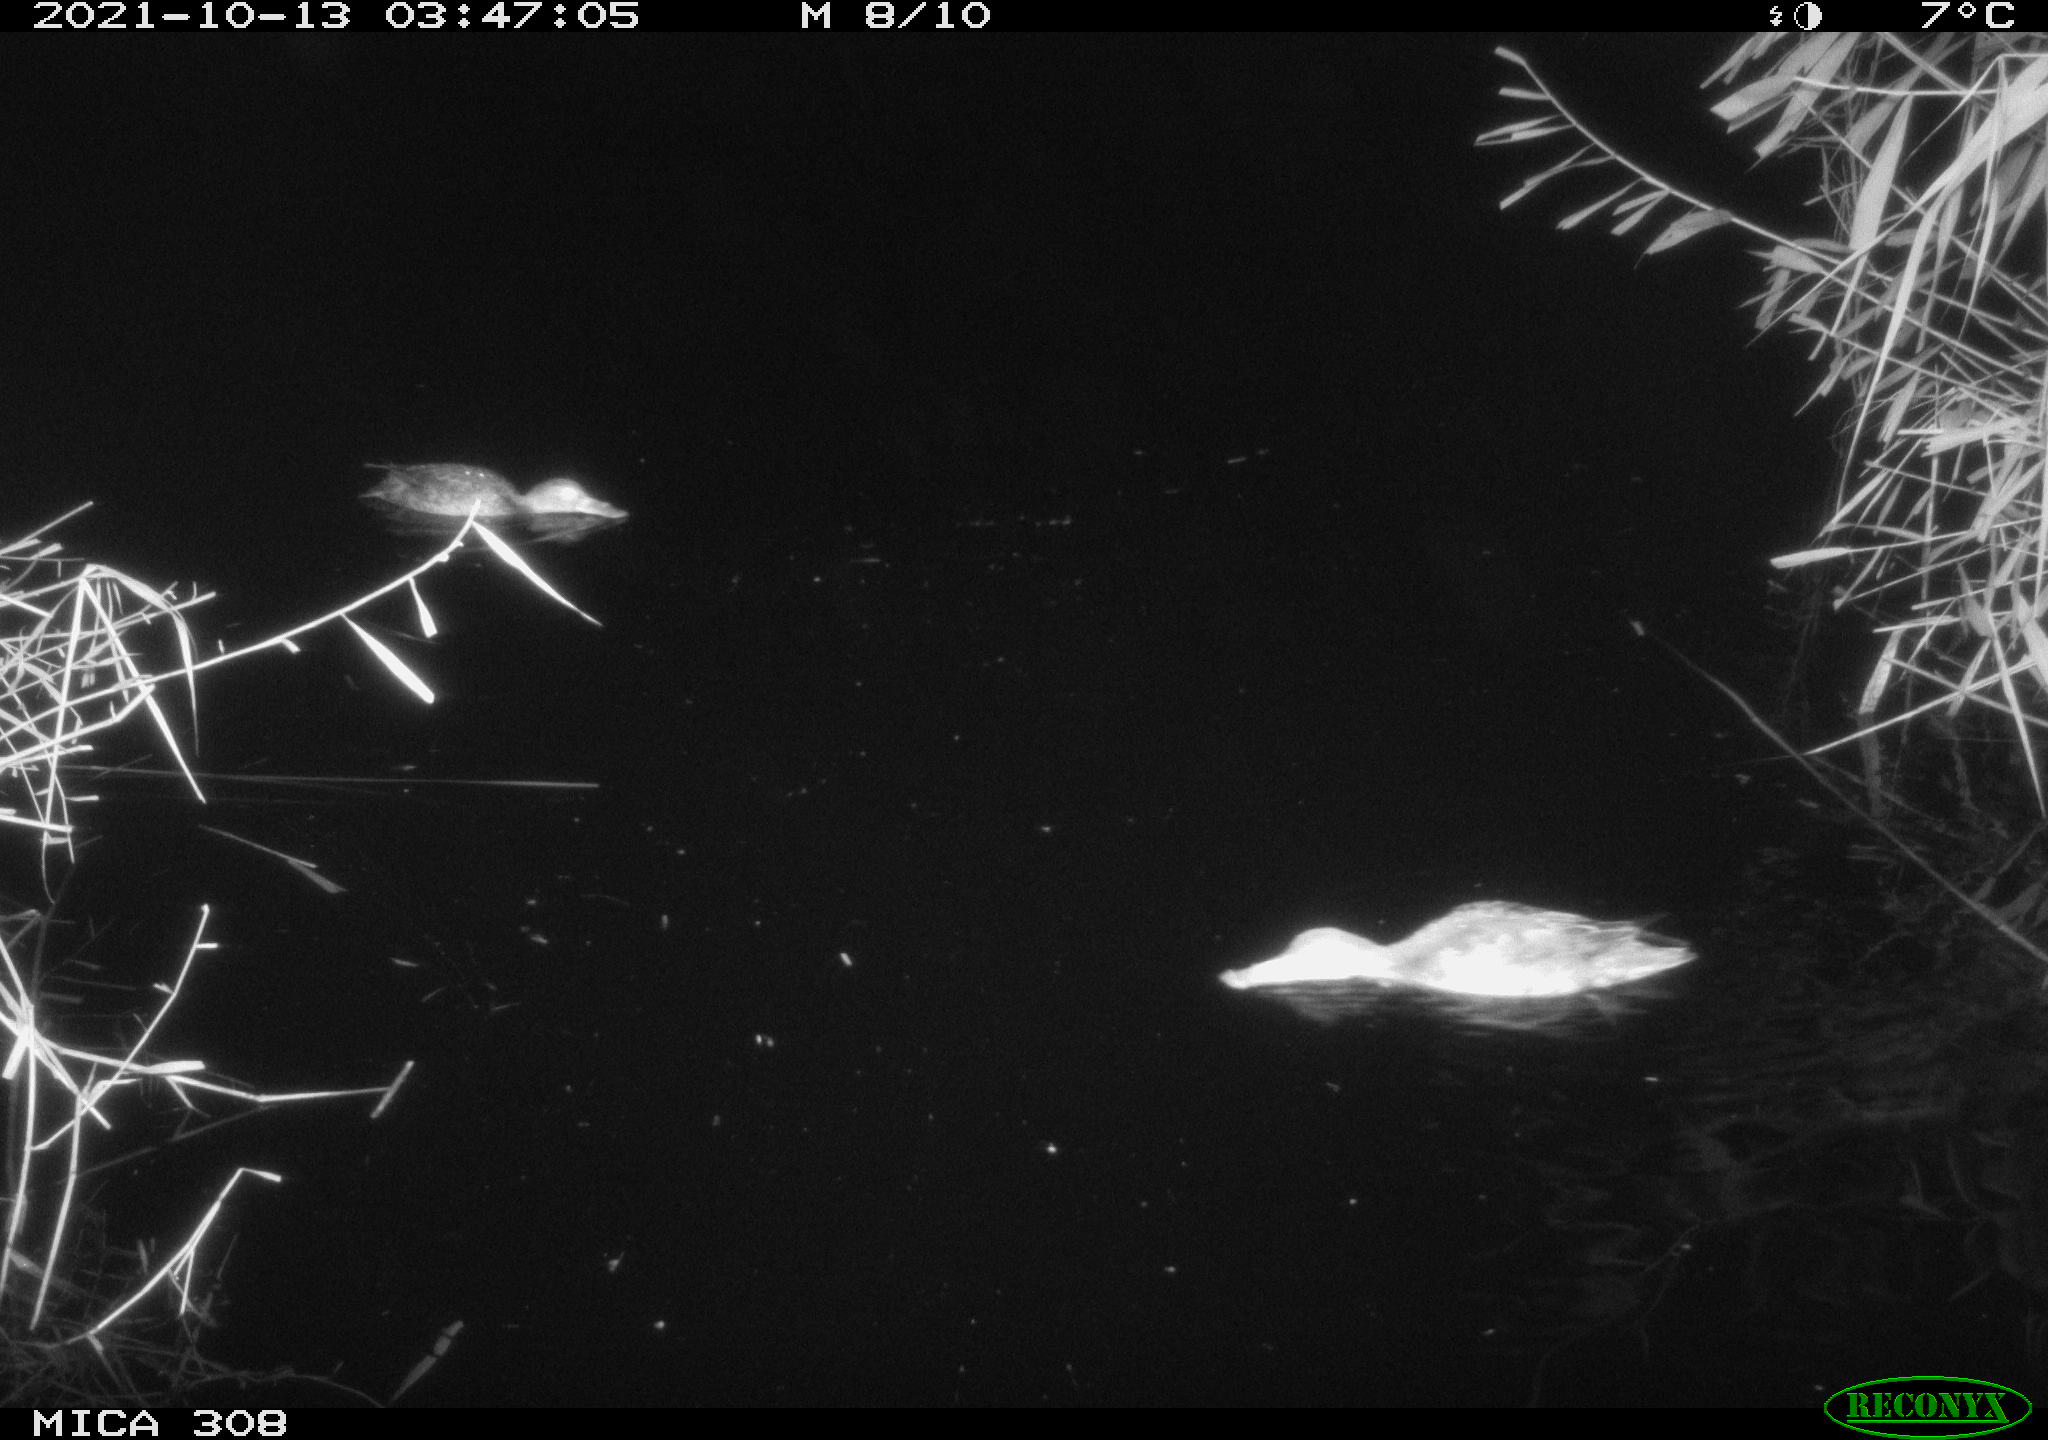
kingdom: Animalia
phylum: Chordata
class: Aves
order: Gruiformes
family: Rallidae
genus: Gallinula
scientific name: Gallinula chloropus
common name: Common moorhen
